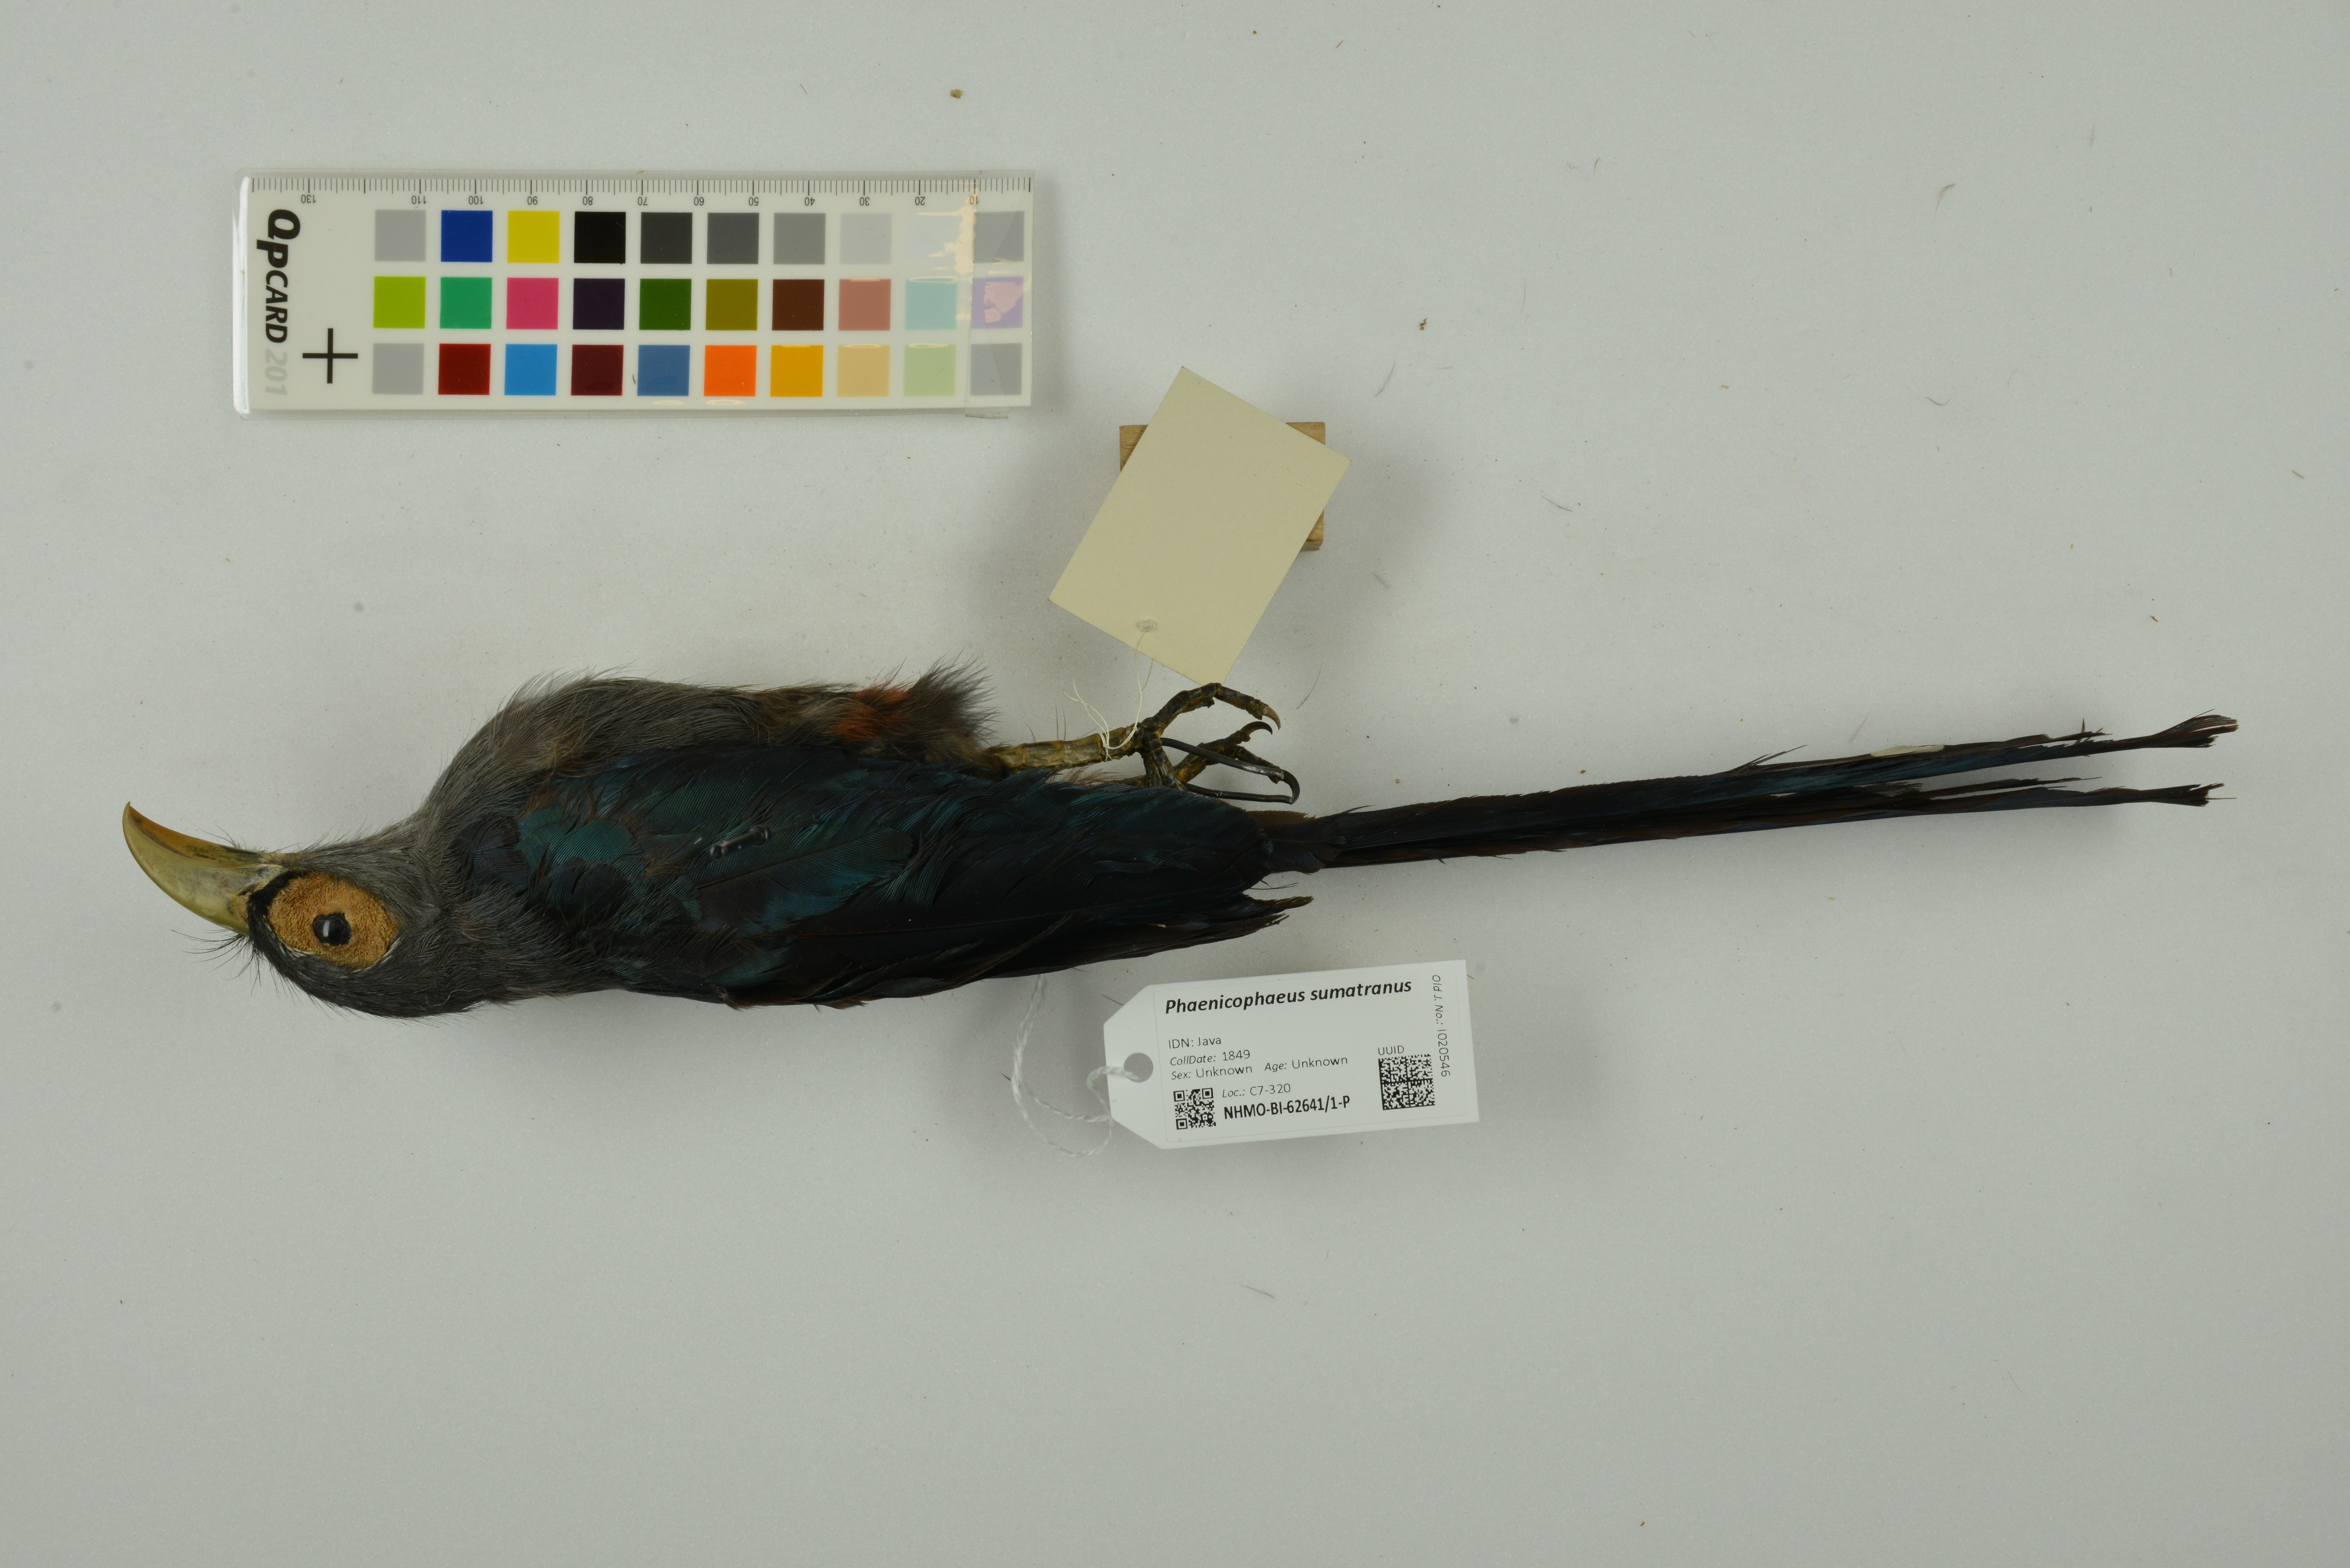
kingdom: Animalia
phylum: Chordata
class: Aves
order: Cuculiformes
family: Cuculidae
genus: Rhopodytes
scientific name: Rhopodytes sumatranus
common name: Rufous-bellied malcoha
